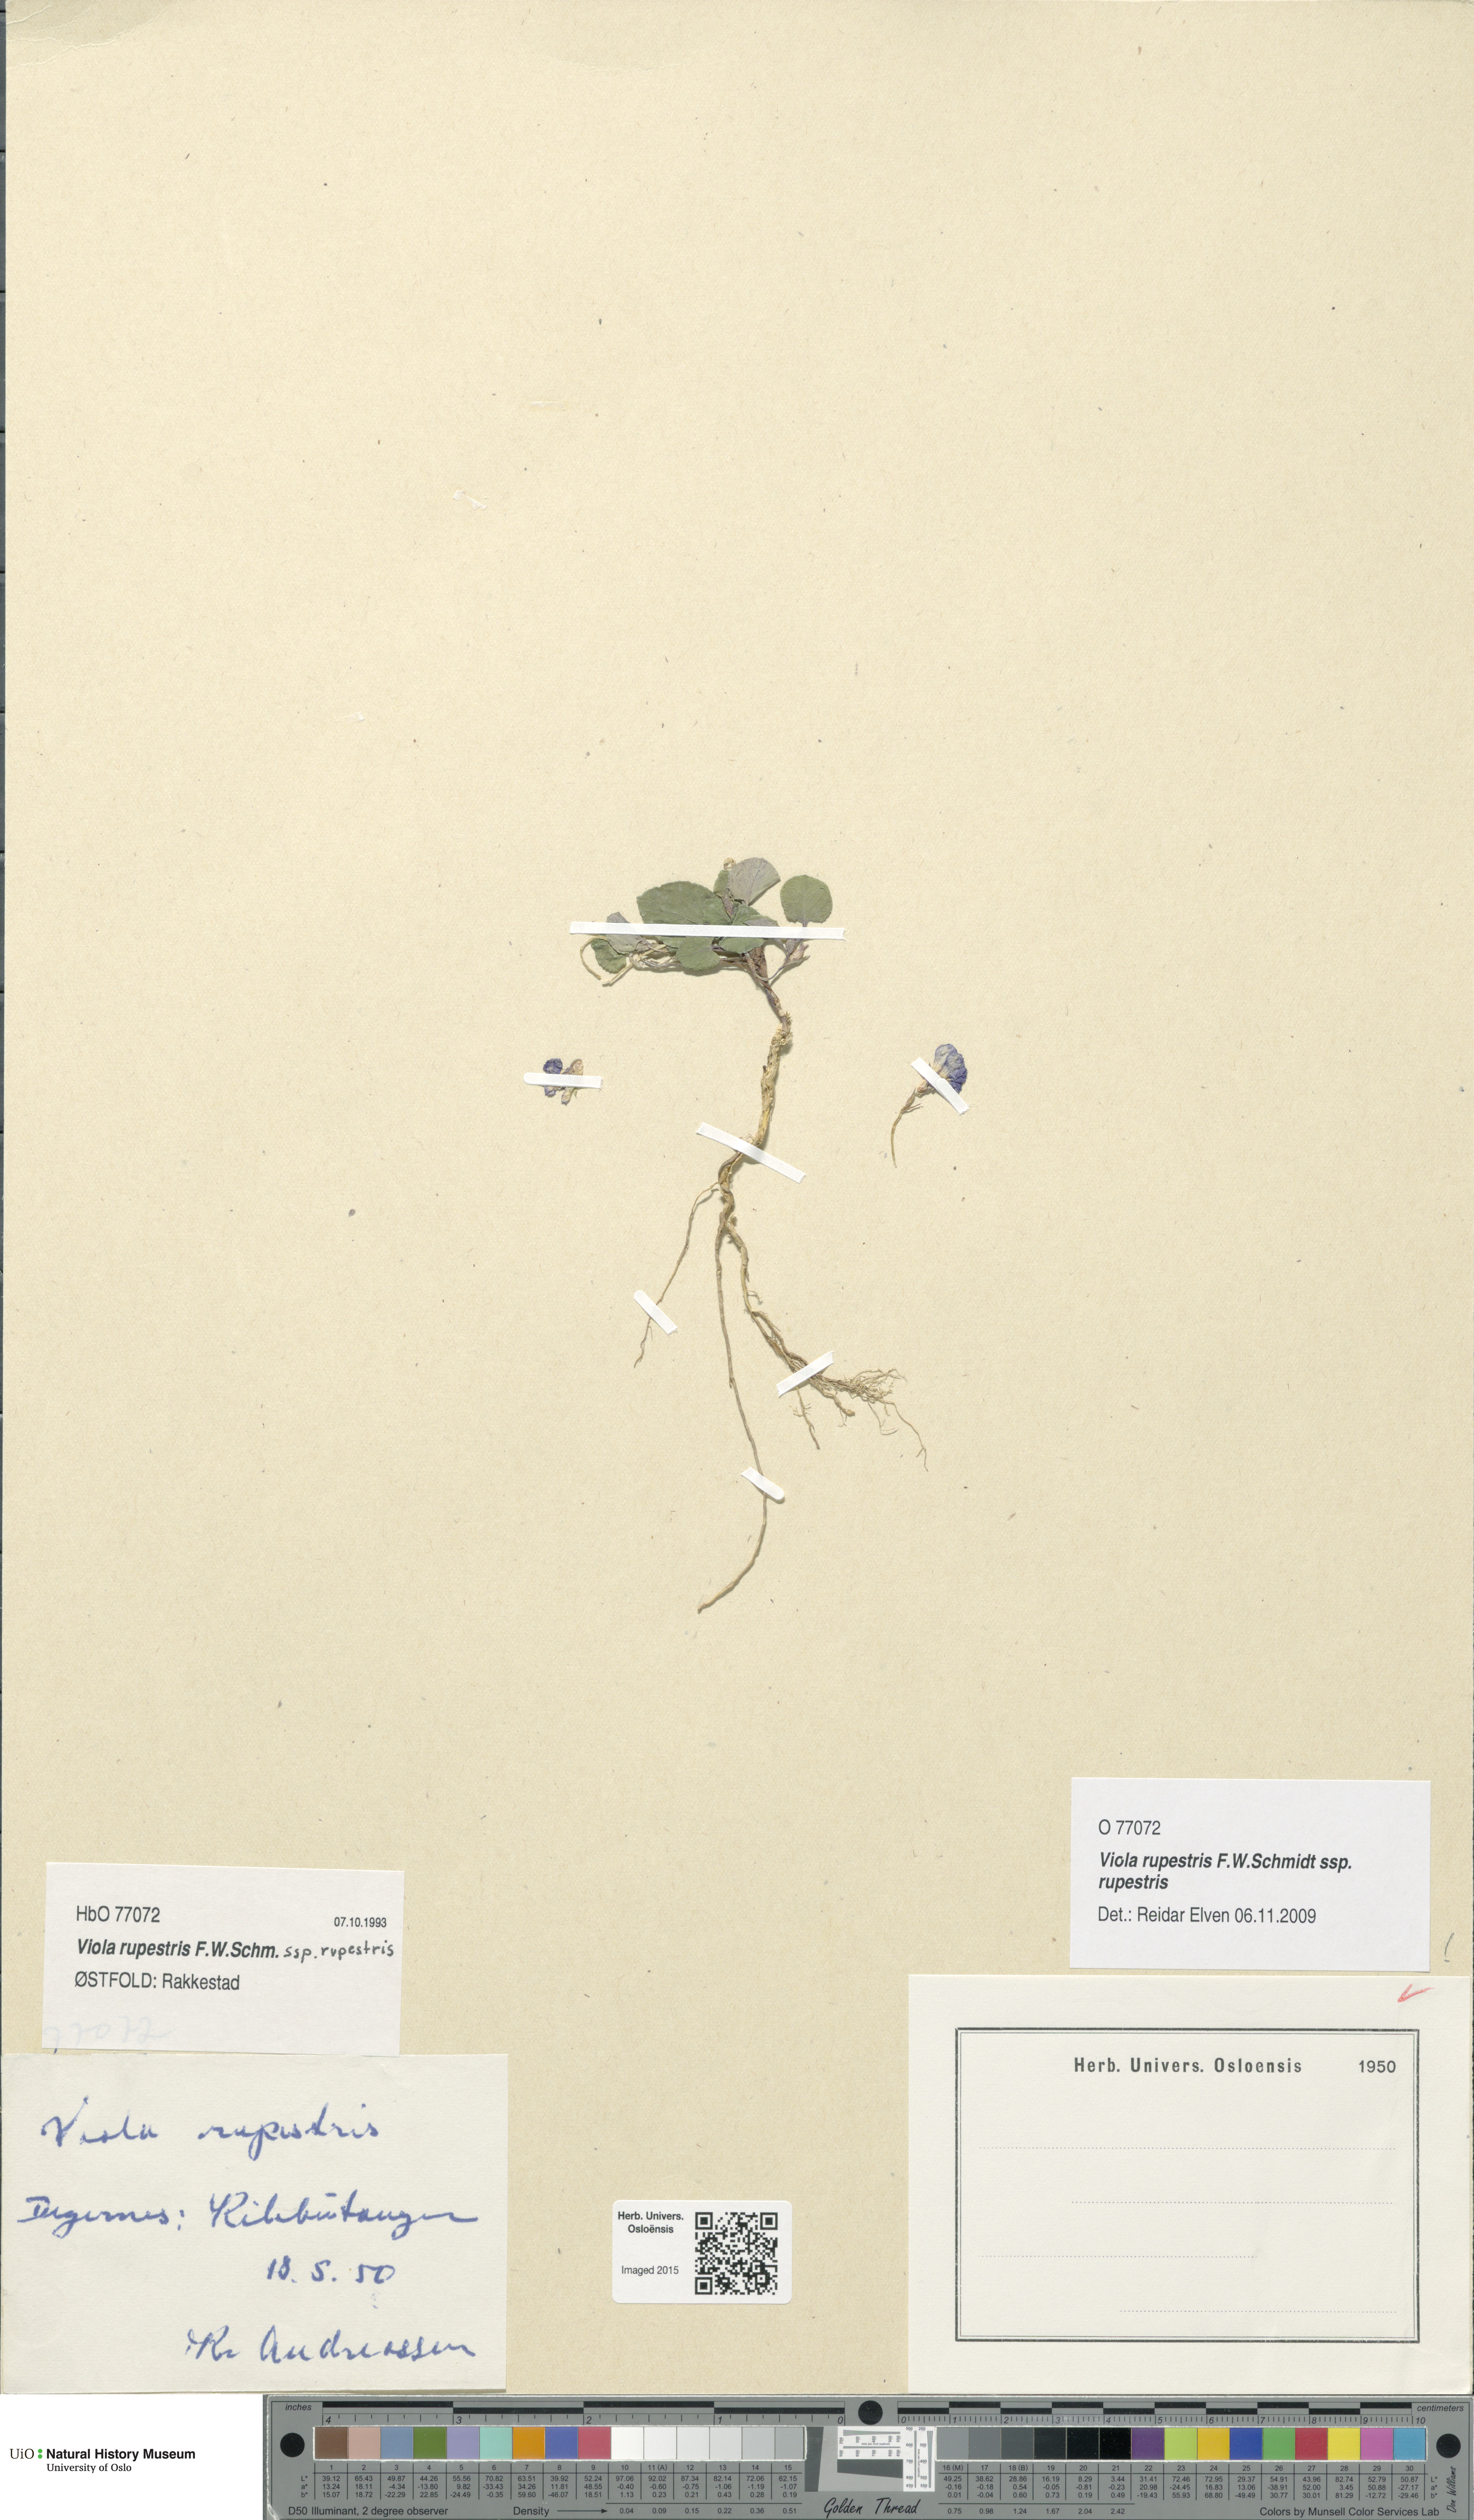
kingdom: Plantae
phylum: Tracheophyta
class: Magnoliopsida
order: Malpighiales
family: Violaceae
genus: Viola
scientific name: Viola rupestris
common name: Teesdale violet
